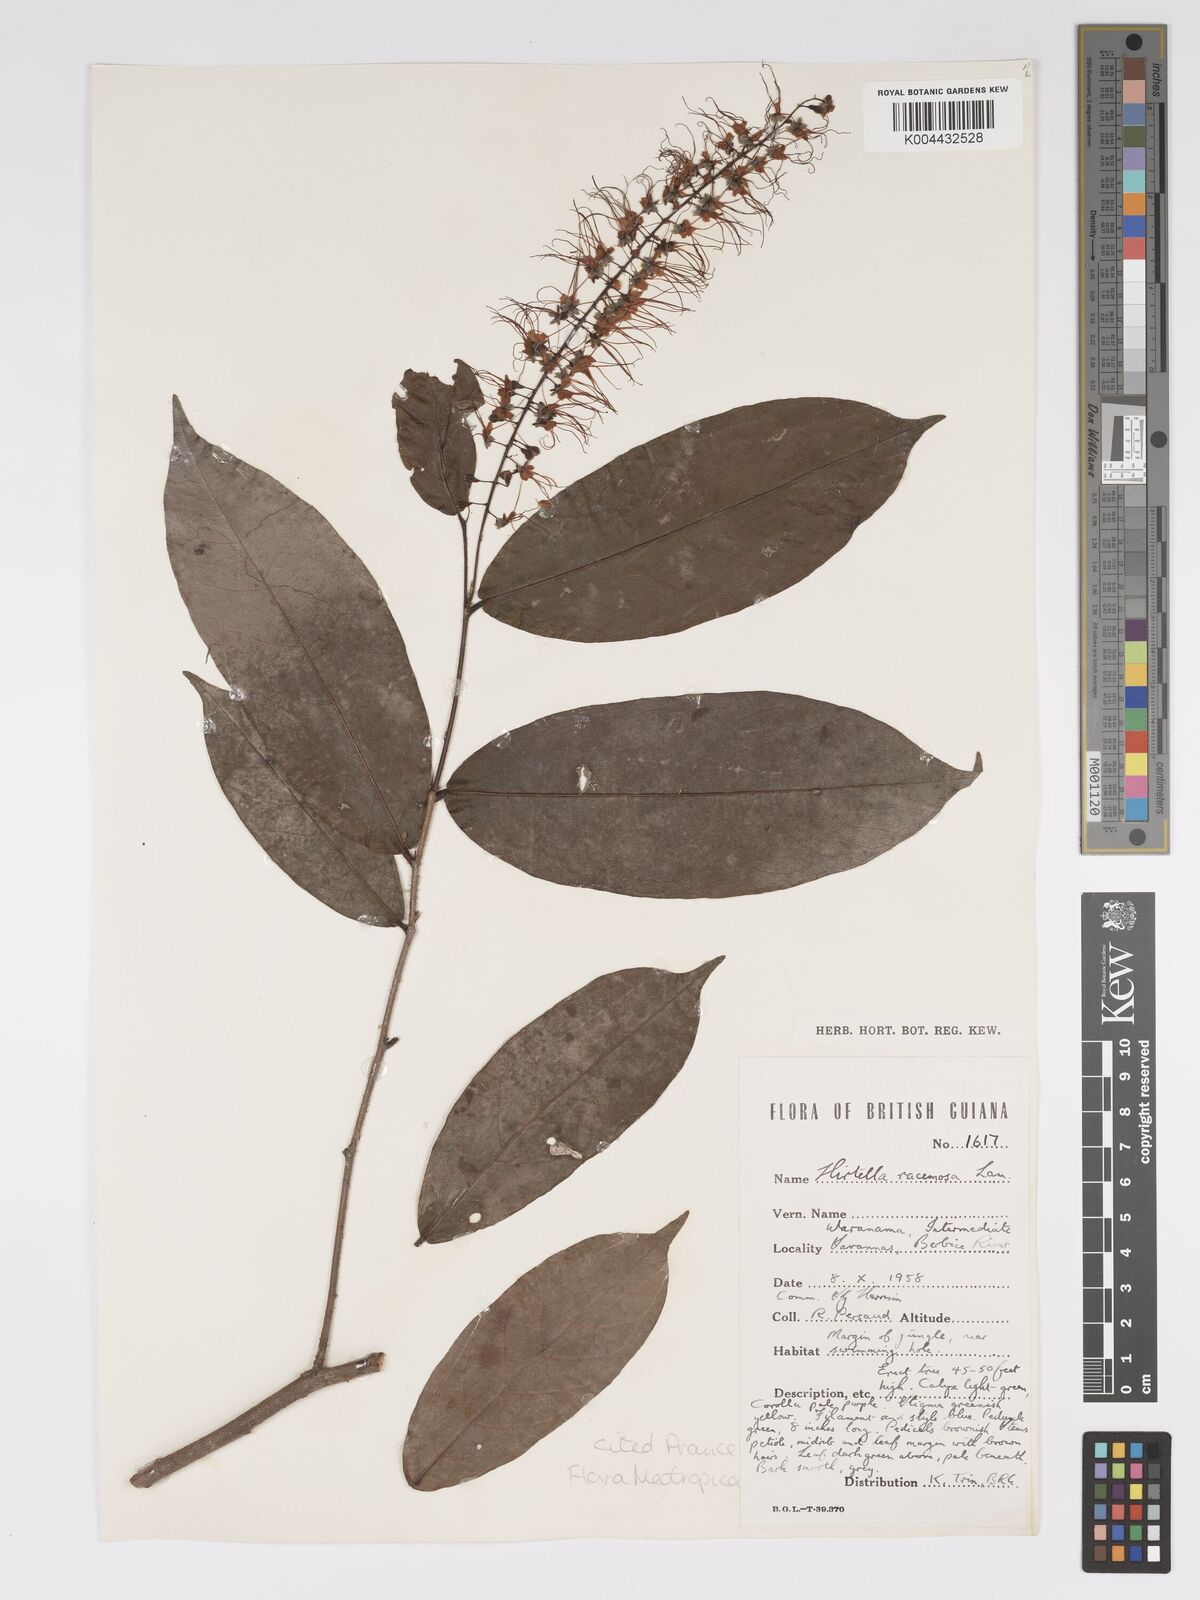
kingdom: Plantae
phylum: Tracheophyta
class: Magnoliopsida
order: Malpighiales
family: Chrysobalanaceae
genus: Hirtella
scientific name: Hirtella
